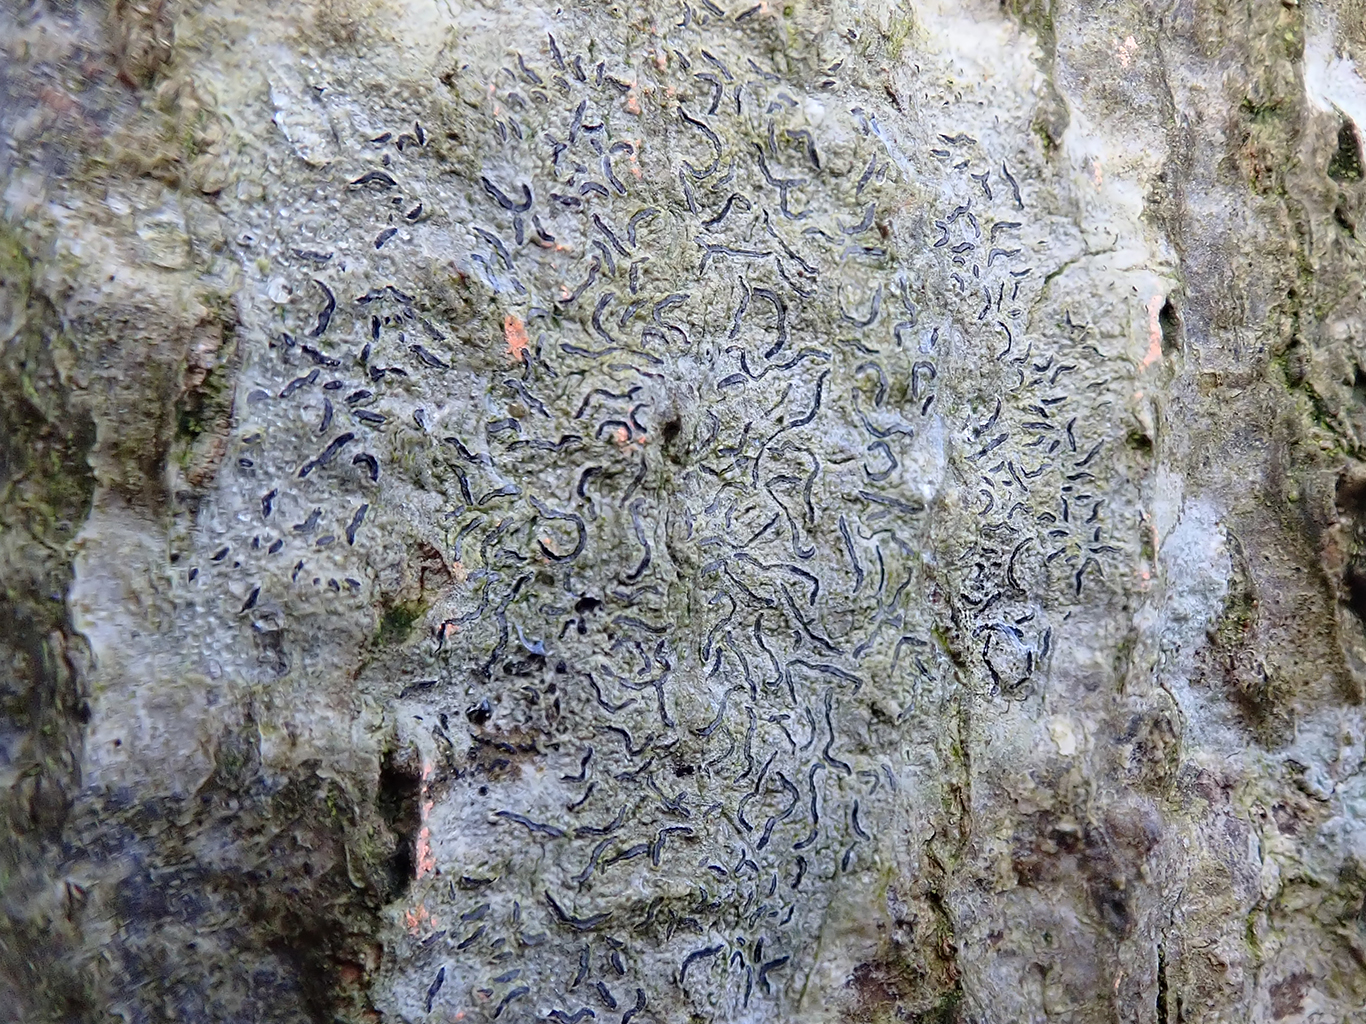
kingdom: Fungi
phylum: Ascomycota
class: Lecanoromycetes
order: Ostropales
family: Graphidaceae
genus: Graphis
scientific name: Graphis scripta
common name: almindelig skriftlav
